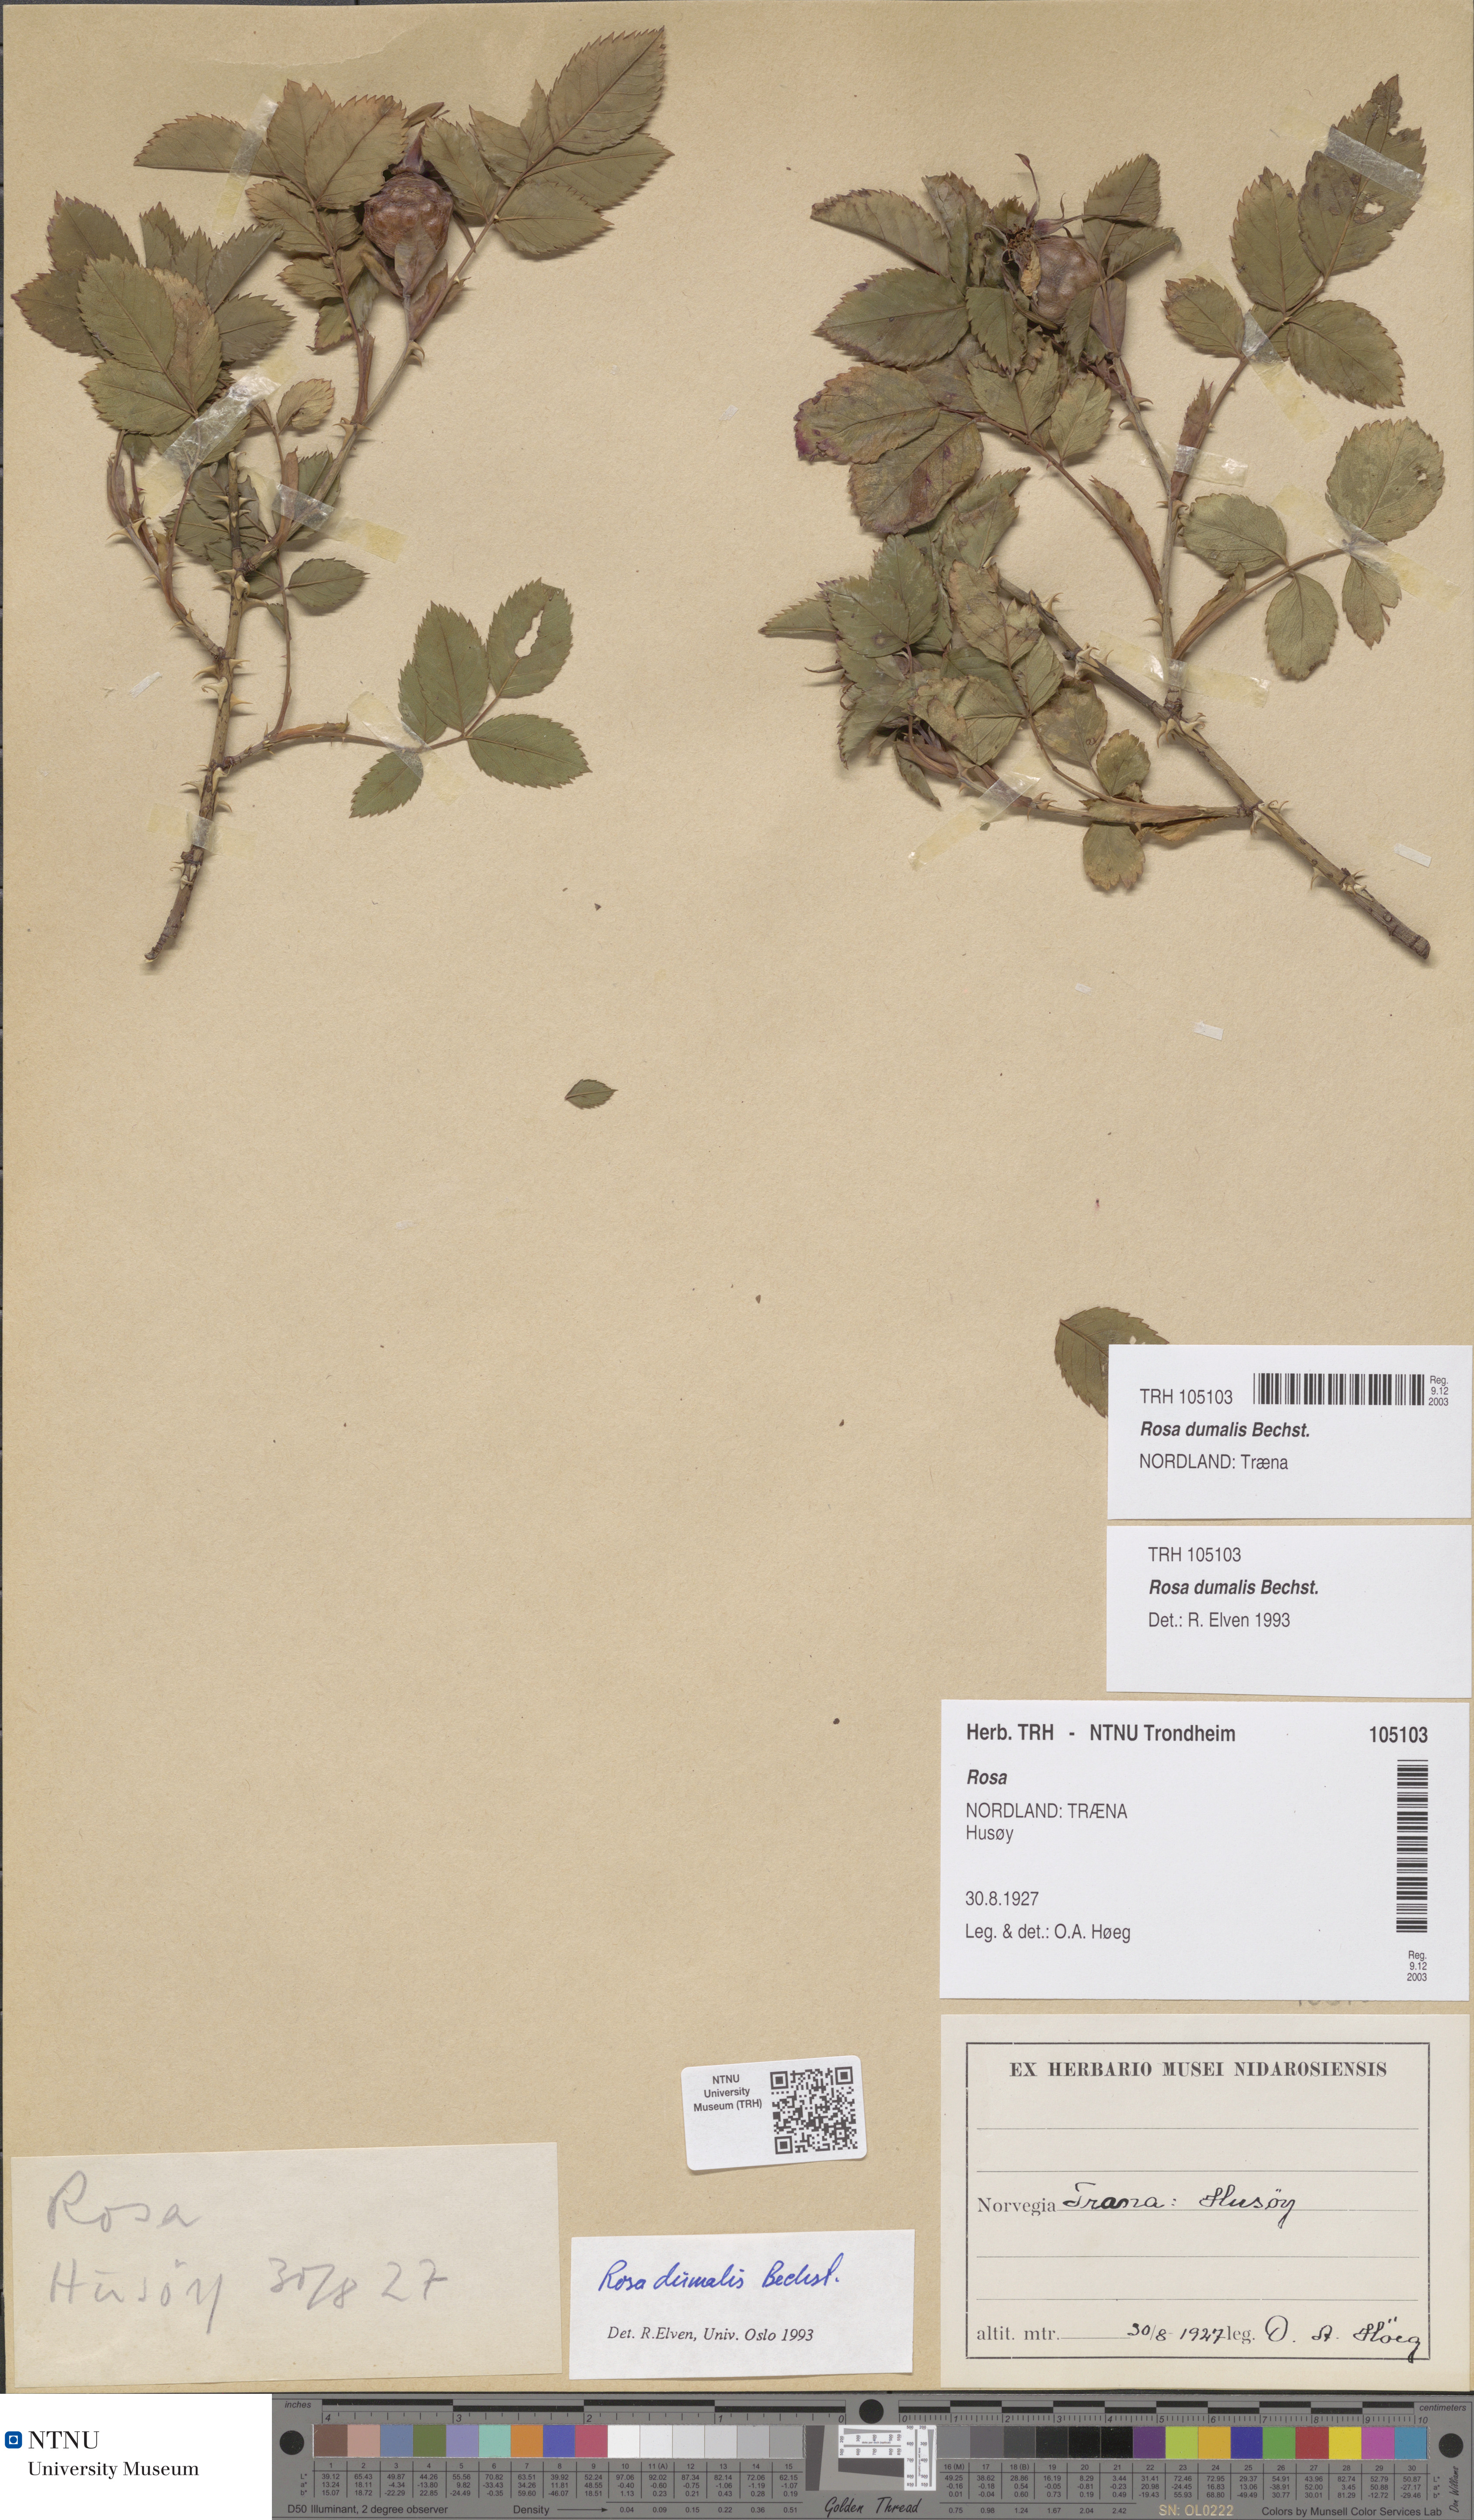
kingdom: Plantae
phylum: Tracheophyta
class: Magnoliopsida
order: Rosales
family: Rosaceae
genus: Rosa
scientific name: Rosa dumalis
